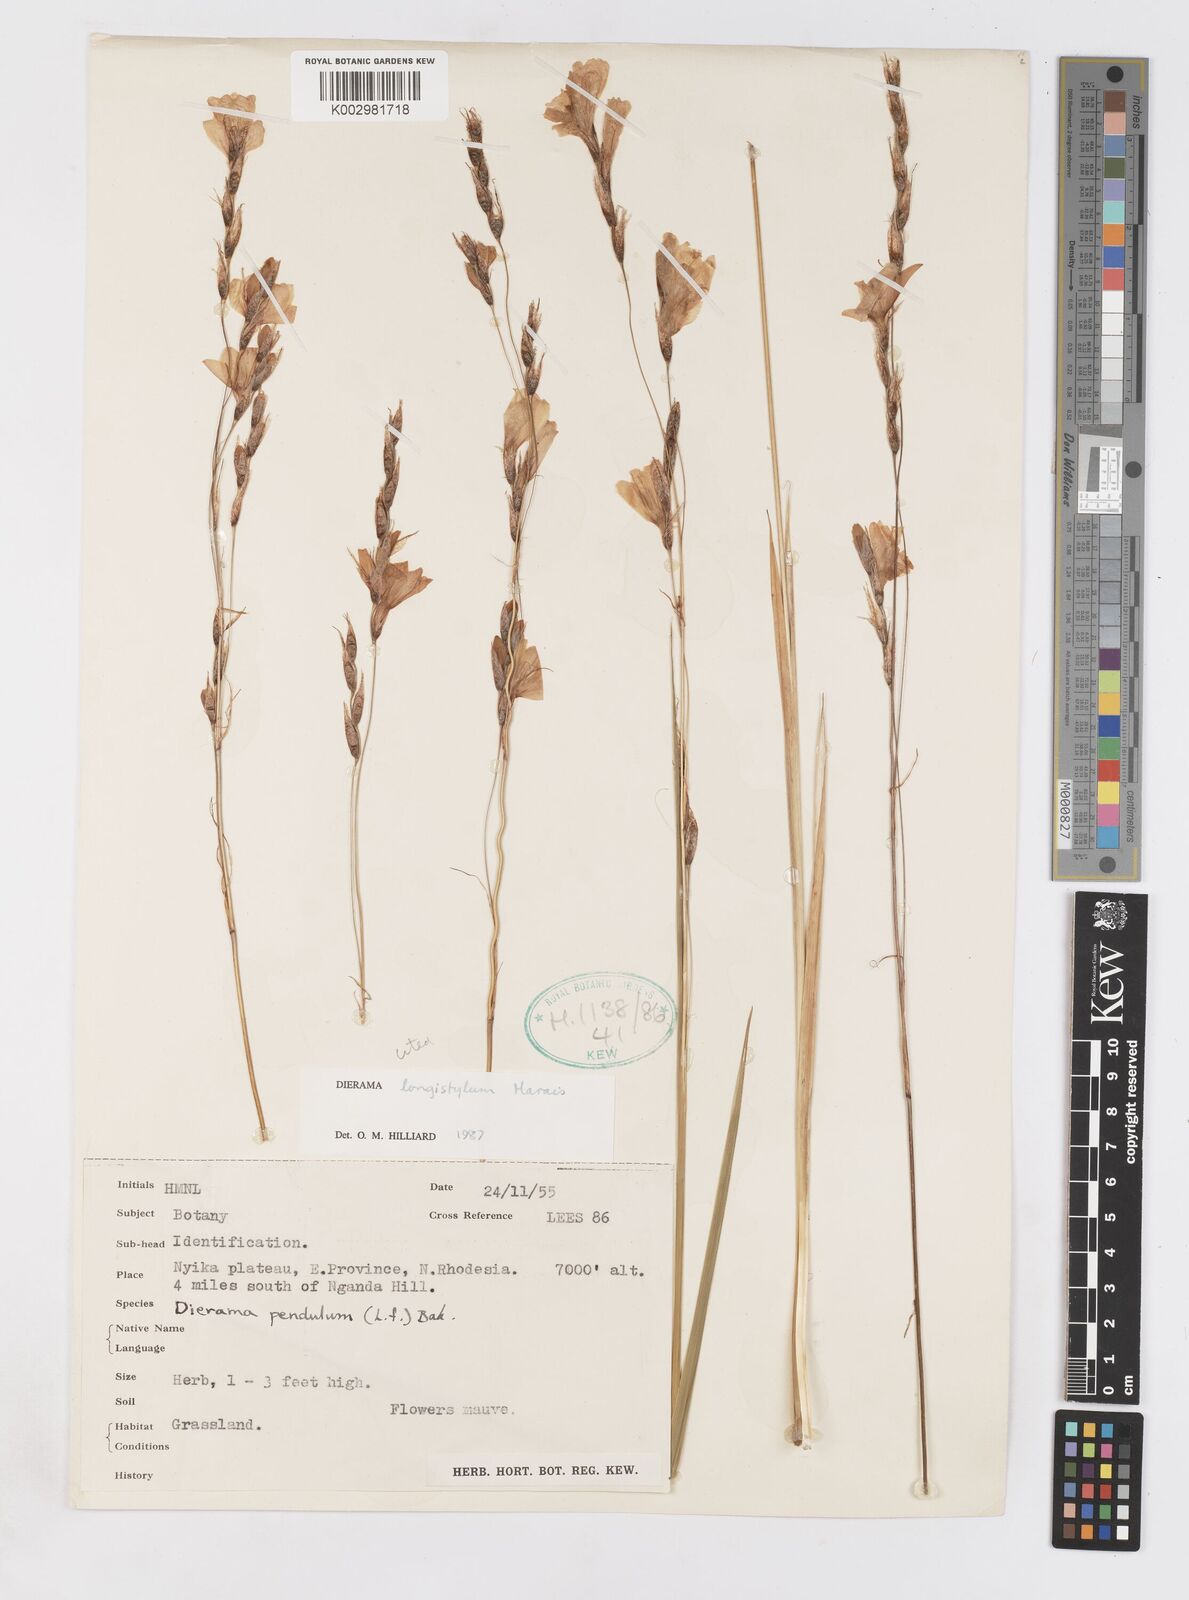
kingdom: Plantae
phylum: Tracheophyta
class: Liliopsida
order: Asparagales
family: Iridaceae
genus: Dierama
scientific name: Dierama longistylum
